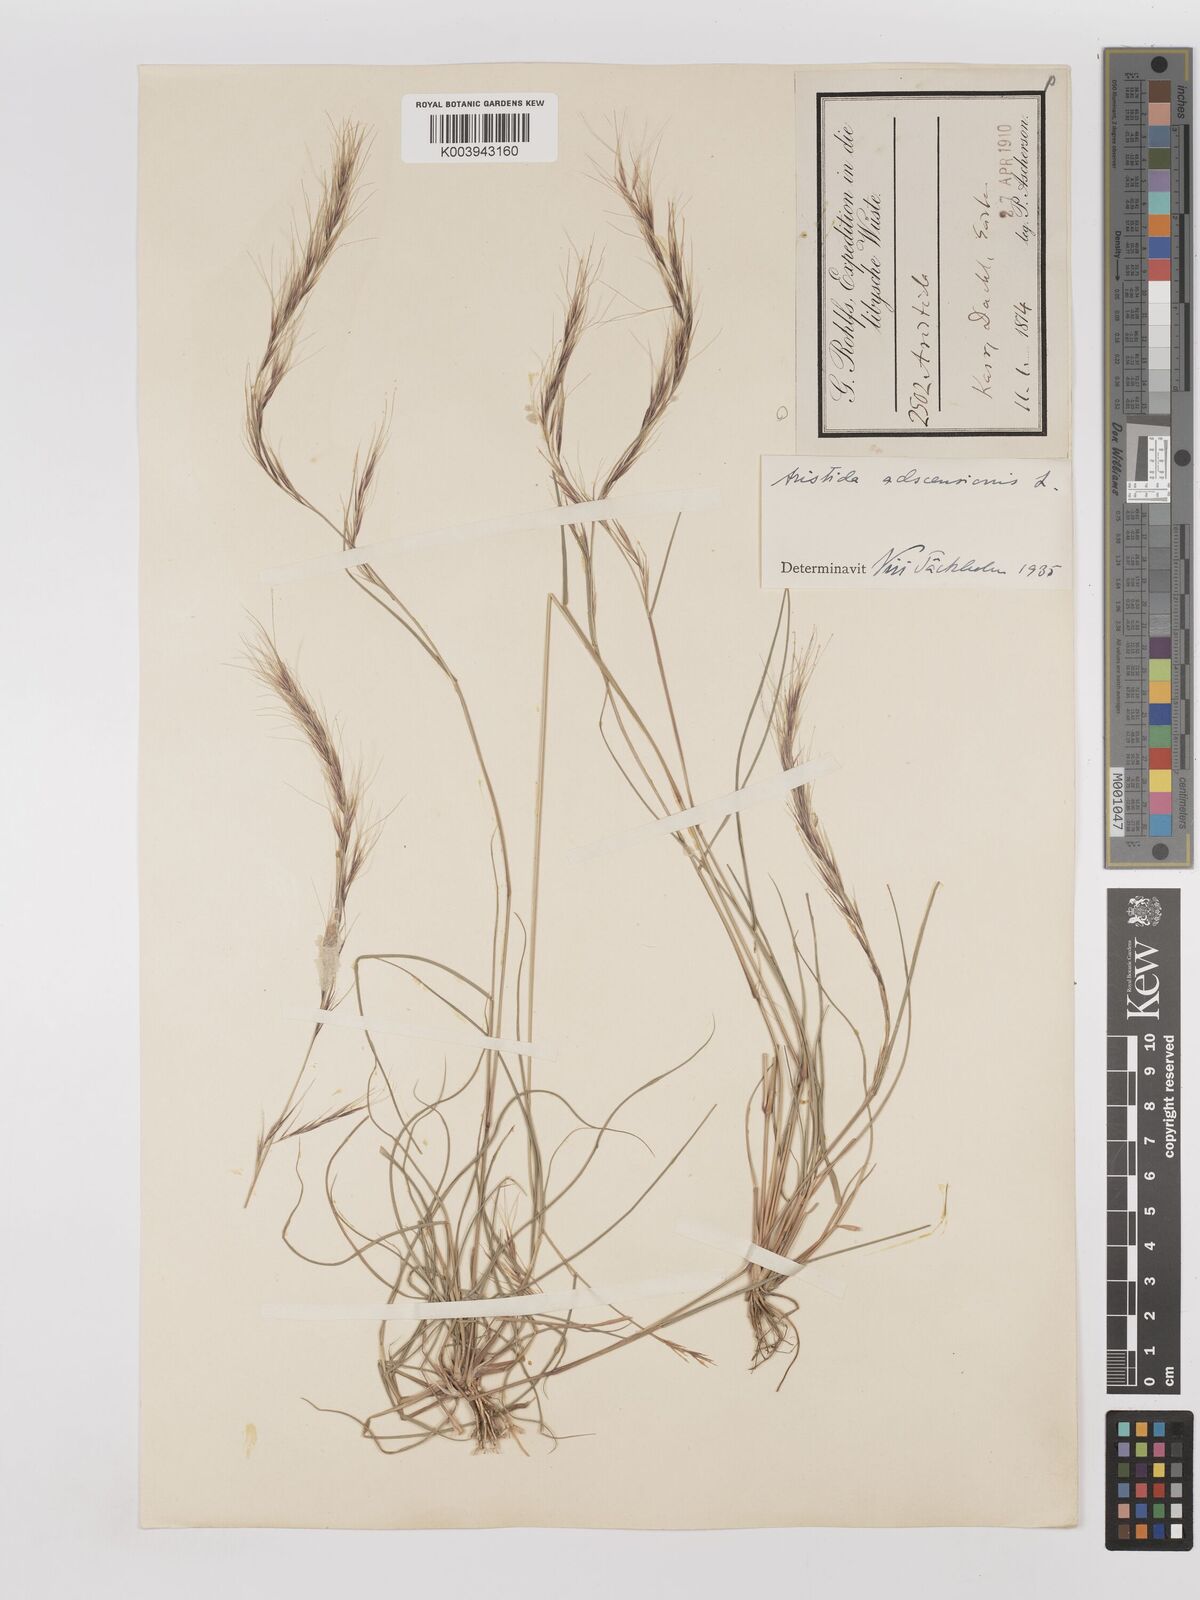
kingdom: Plantae
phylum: Tracheophyta
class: Liliopsida
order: Poales
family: Poaceae
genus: Aristida
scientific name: Aristida adscensionis
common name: Sixweeks threeawn
